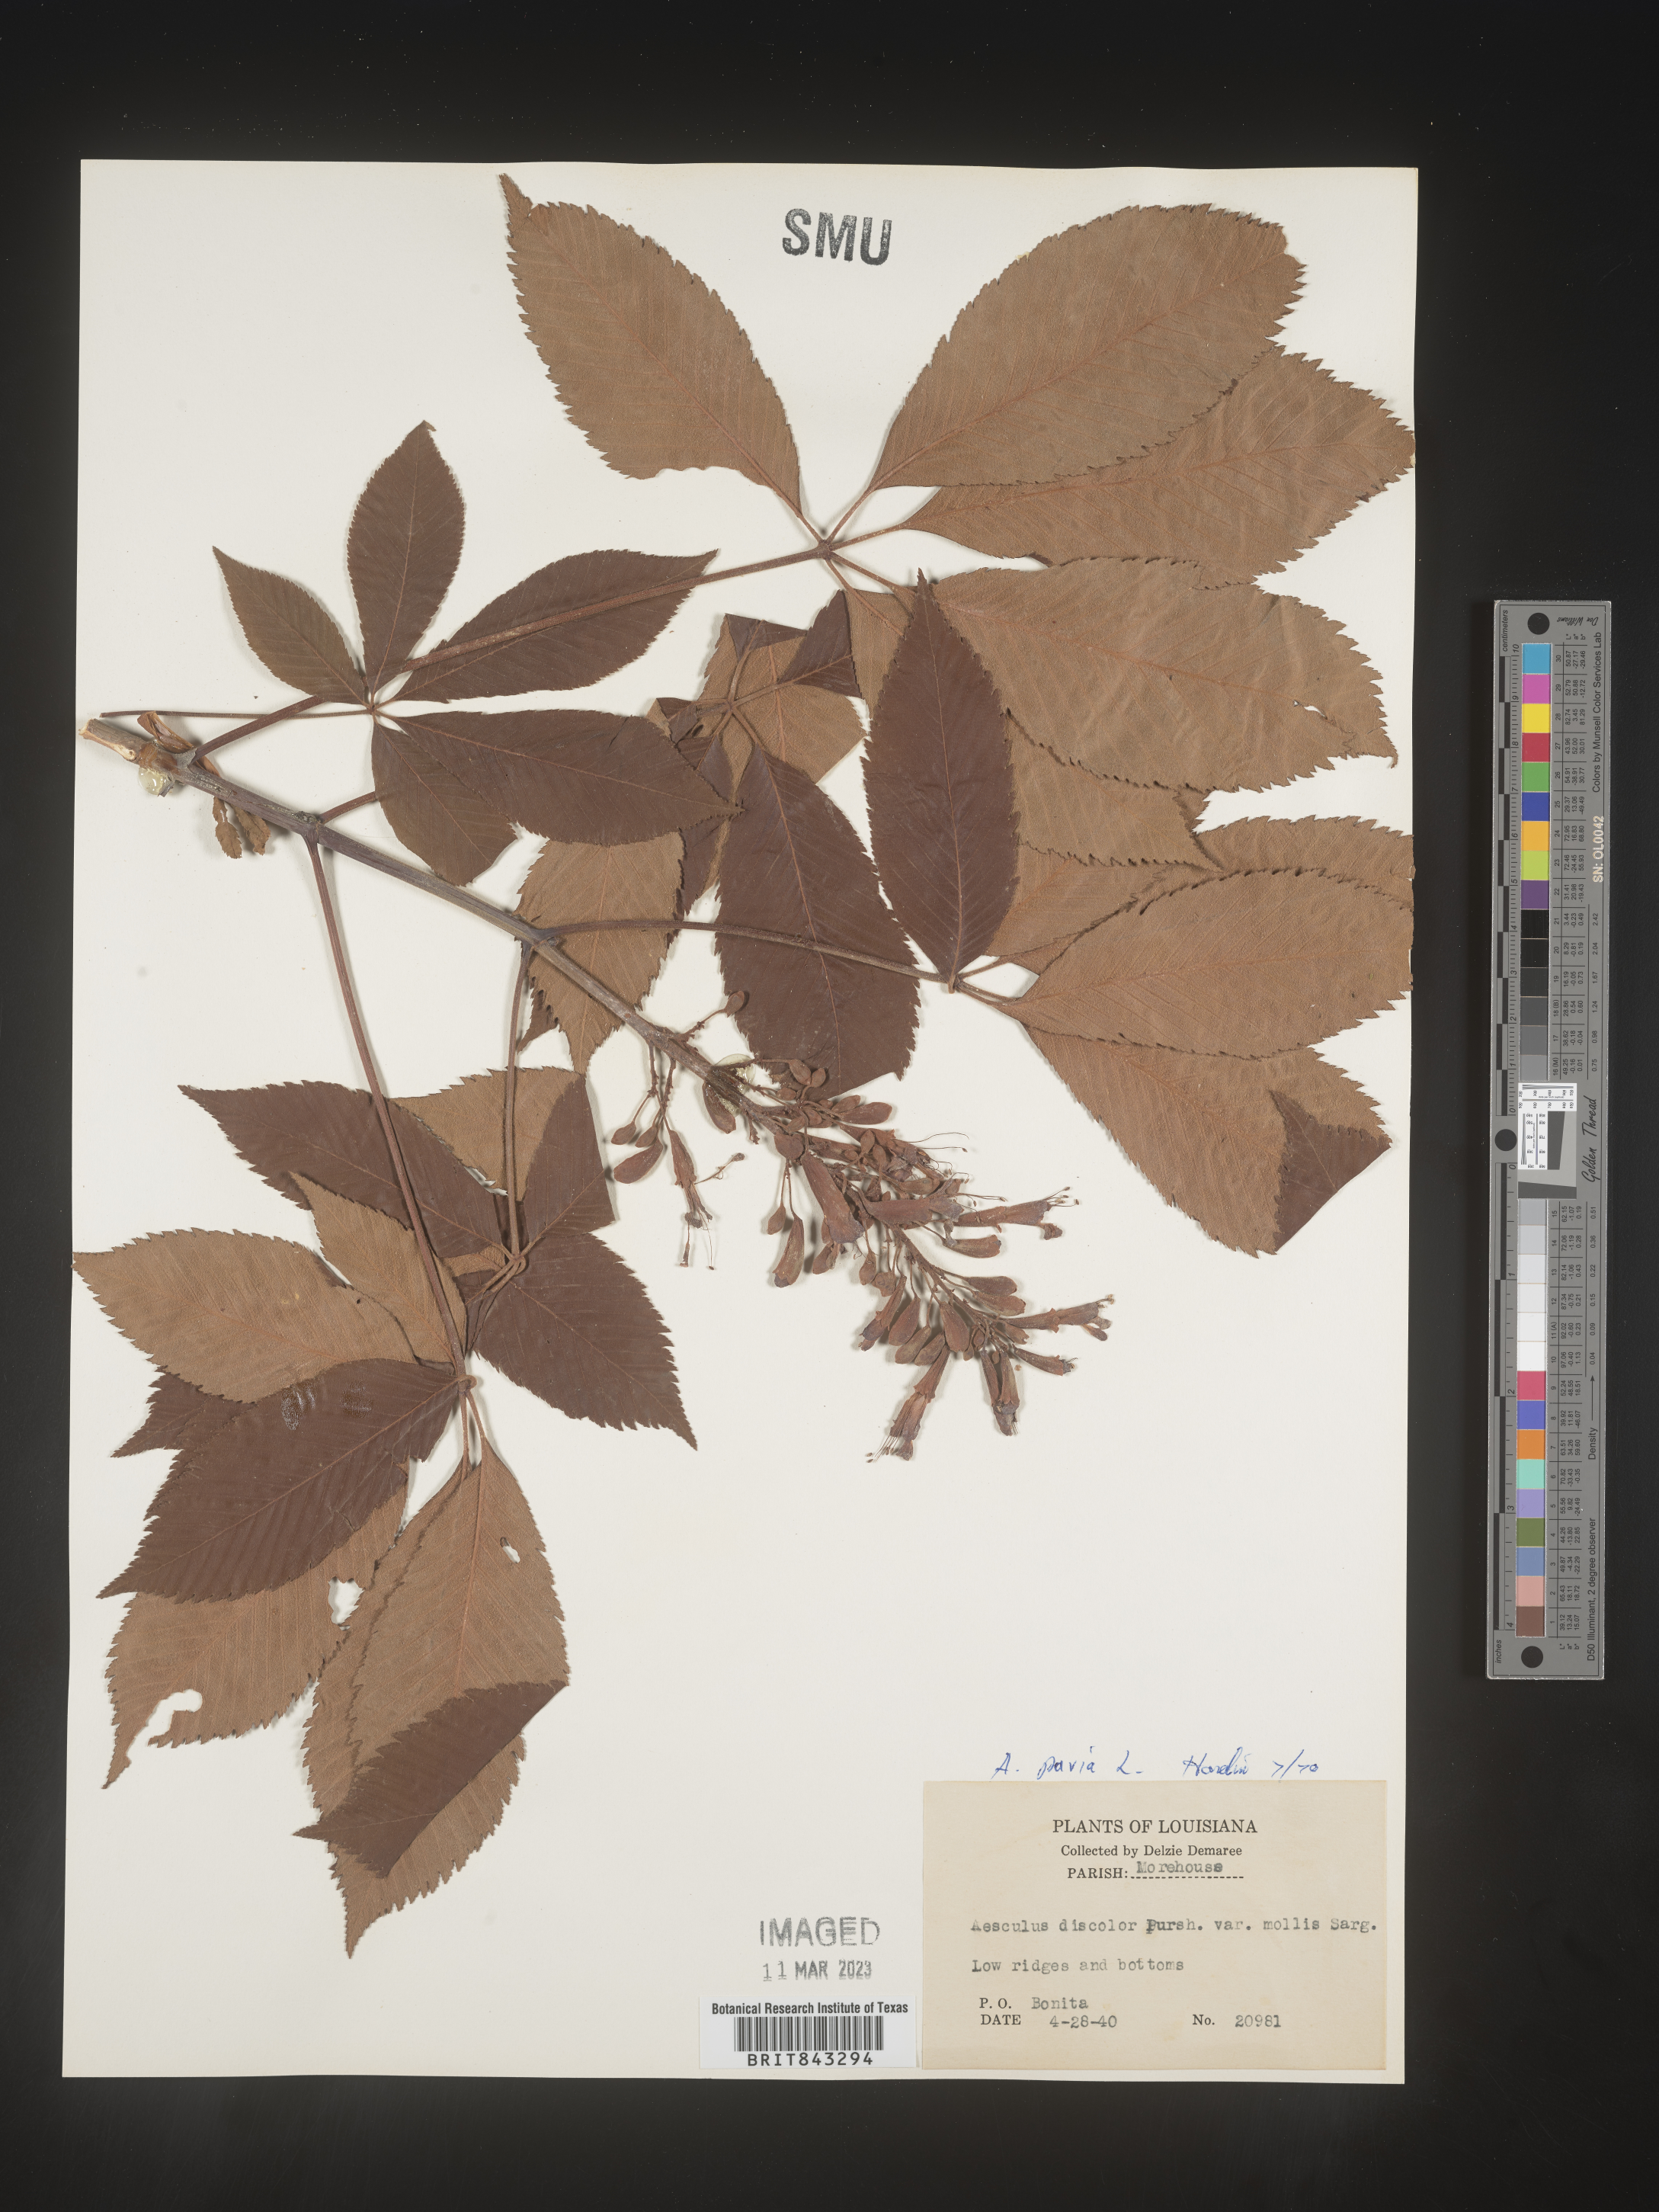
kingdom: Plantae
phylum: Tracheophyta
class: Magnoliopsida
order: Sapindales
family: Sapindaceae
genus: Aesculus
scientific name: Aesculus pavia
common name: Red buckeye
